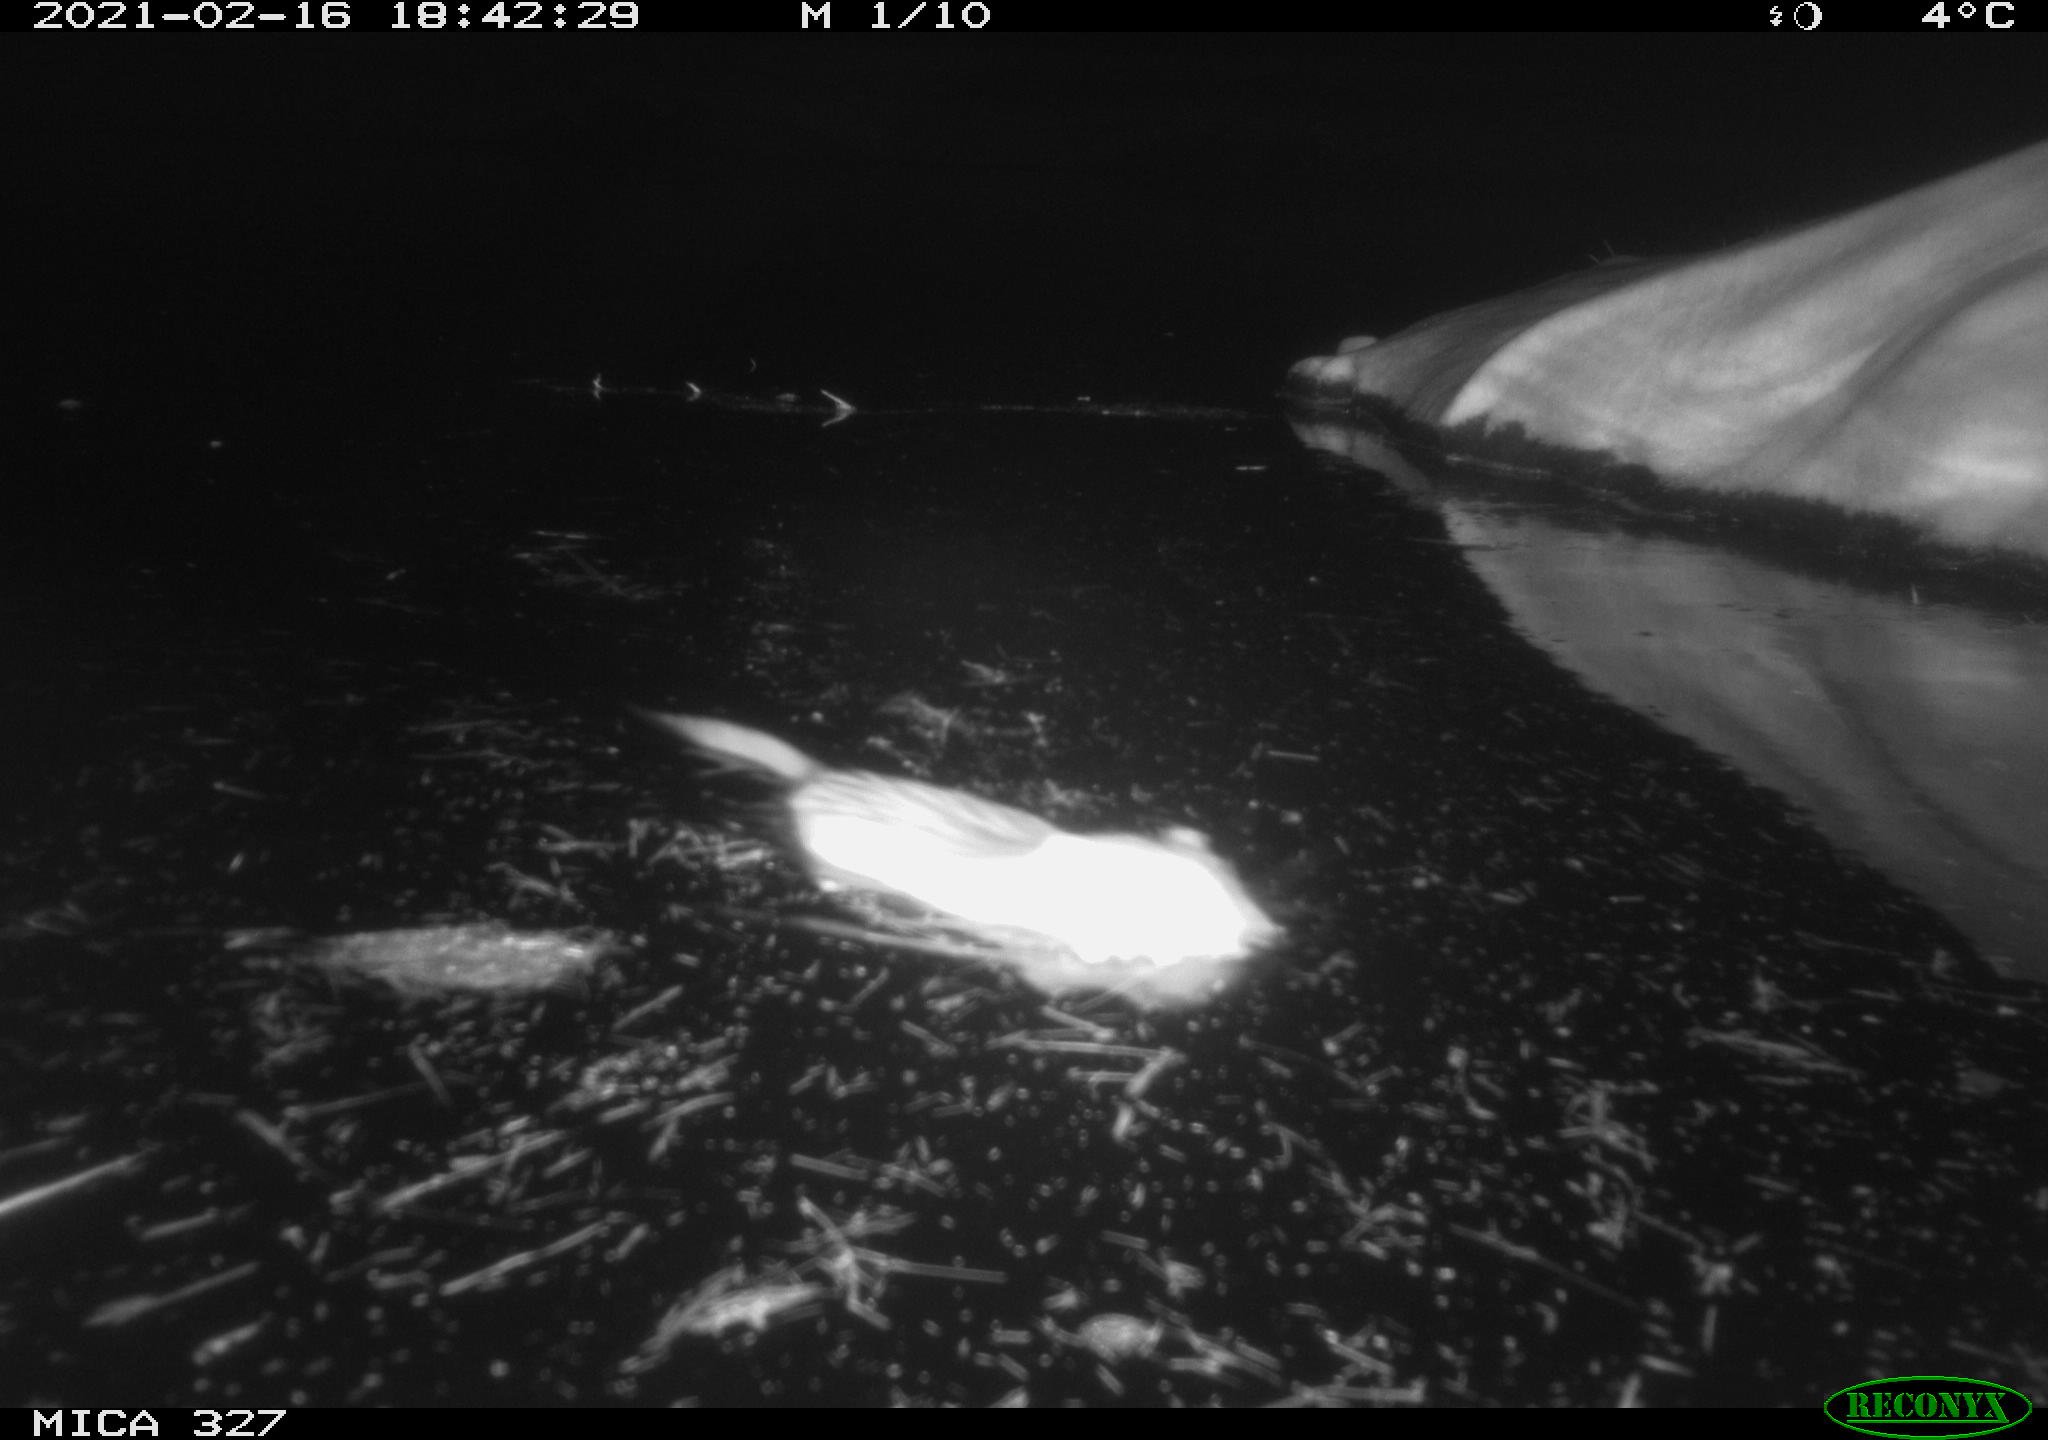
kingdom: Animalia
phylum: Chordata
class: Mammalia
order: Rodentia
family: Cricetidae
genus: Ondatra
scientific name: Ondatra zibethicus
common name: Muskrat
